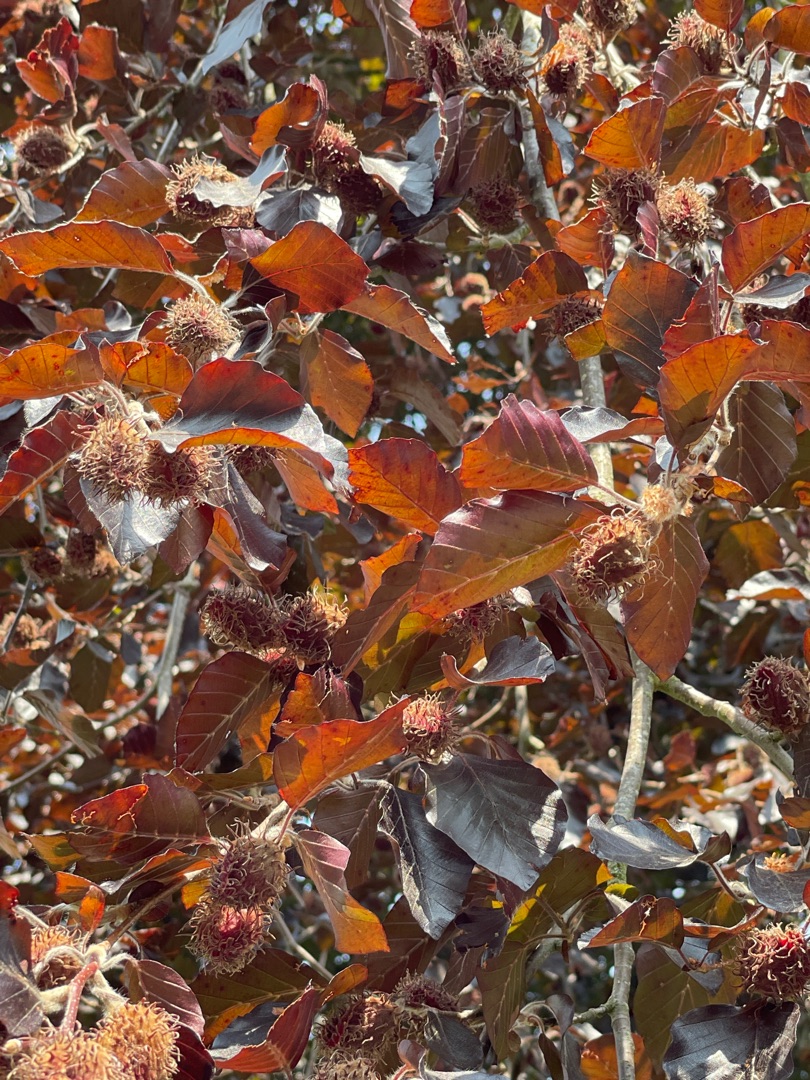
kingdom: Plantae
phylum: Tracheophyta
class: Magnoliopsida
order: Fagales
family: Fagaceae
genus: Fagus
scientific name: Fagus sylvatica
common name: Bøg
